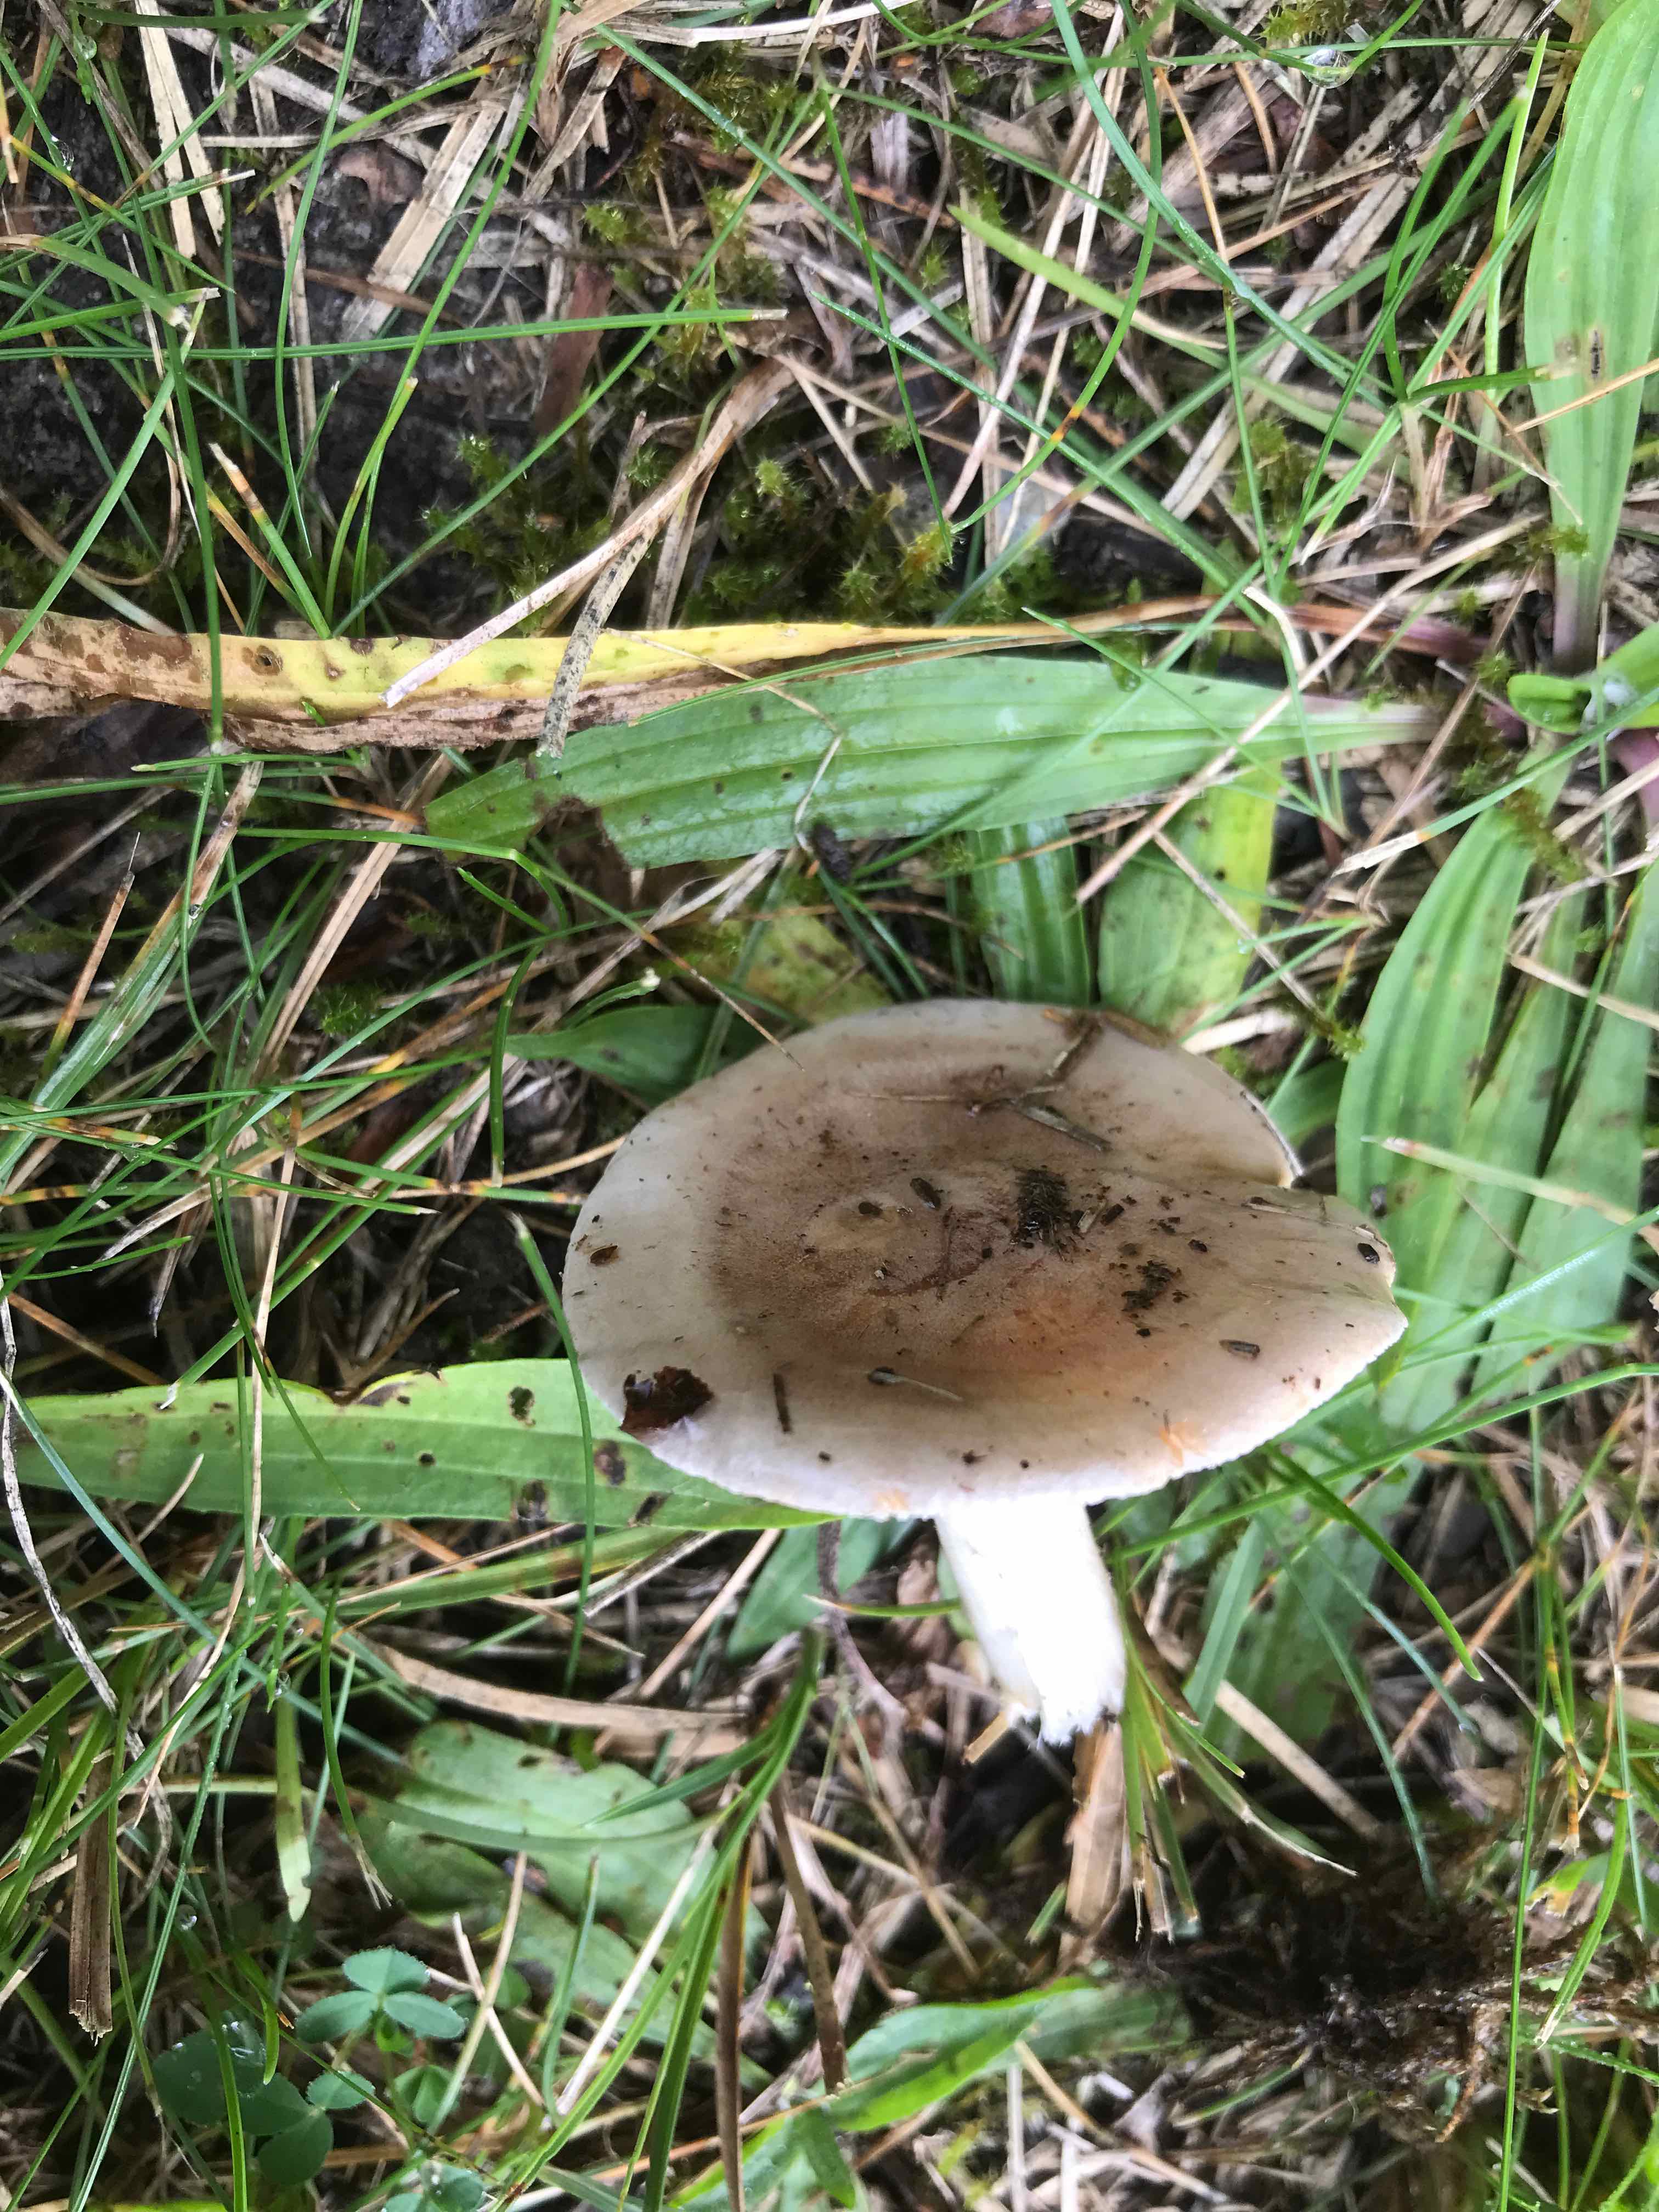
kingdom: Fungi
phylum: Basidiomycota
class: Agaricomycetes
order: Agaricales
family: Hymenogastraceae
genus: Hebeloma
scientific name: Hebeloma
